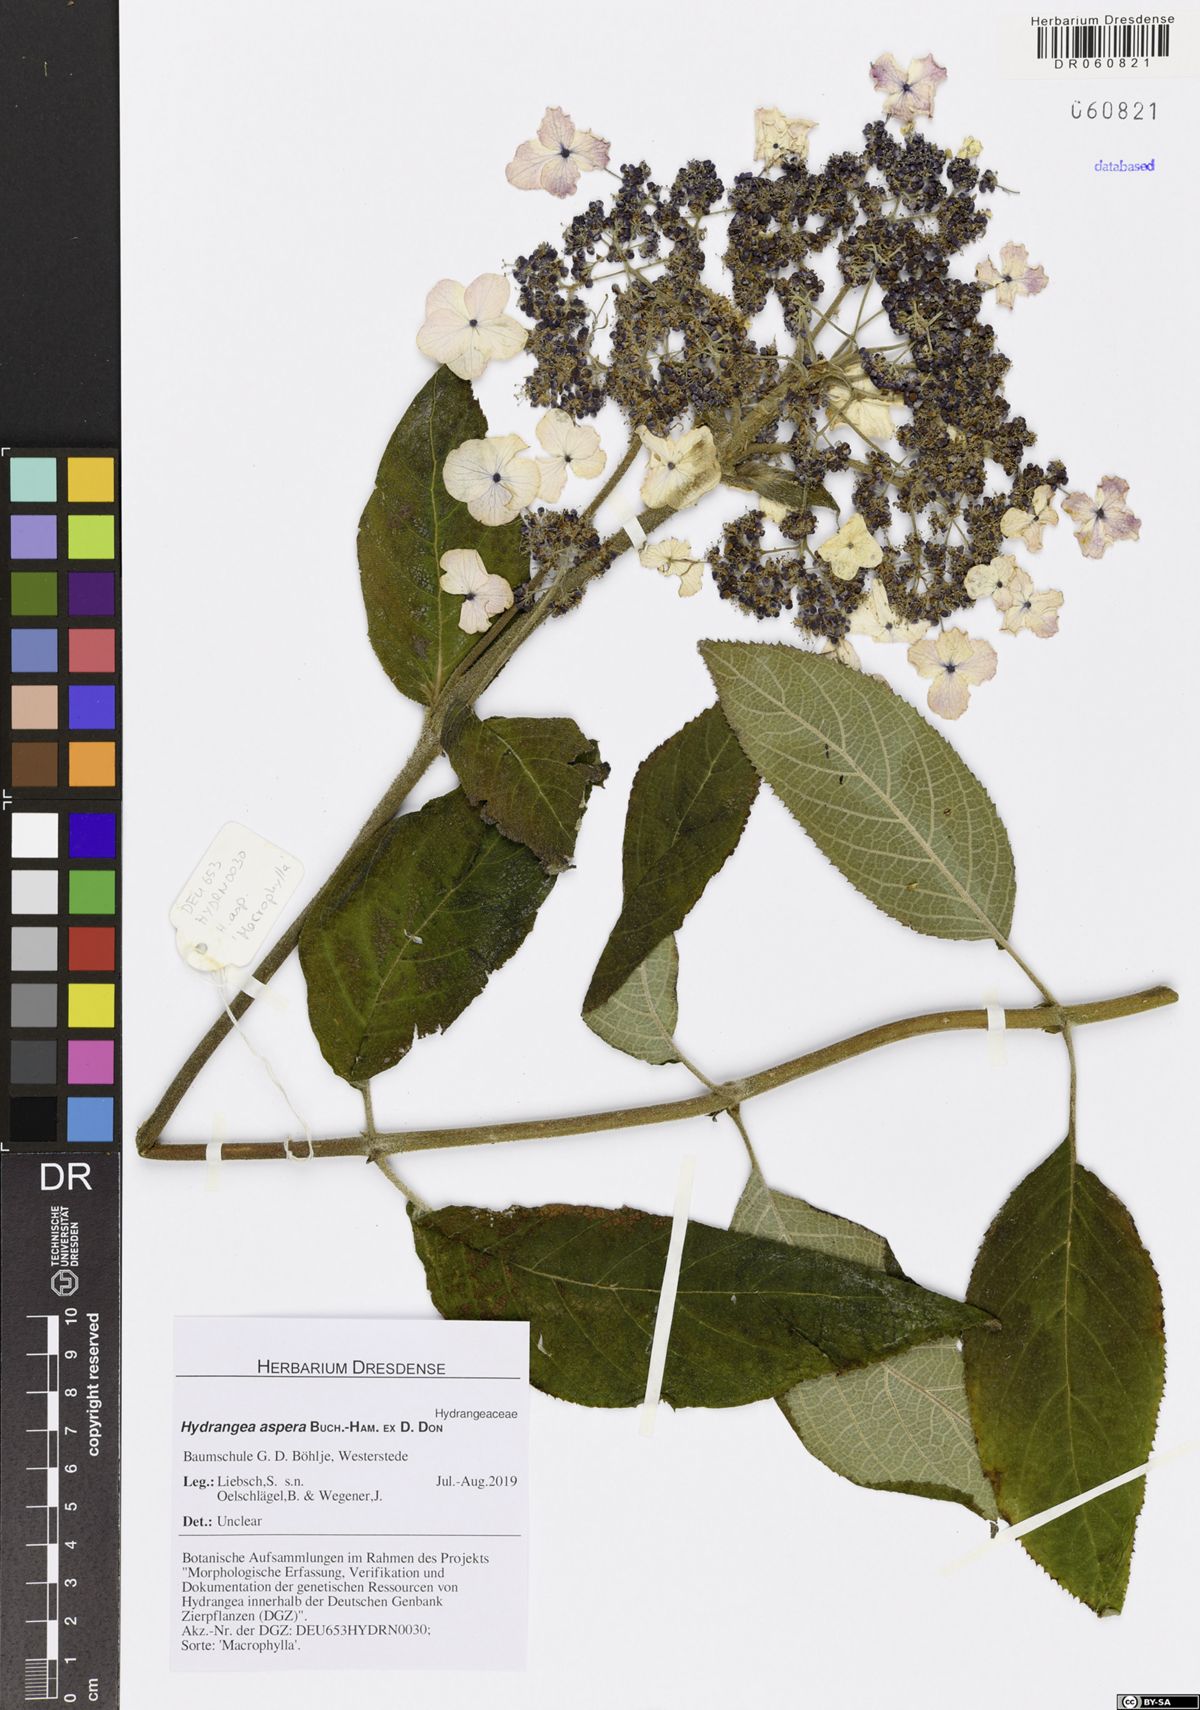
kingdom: Plantae
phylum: Tracheophyta
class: Magnoliopsida
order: Cornales
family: Hydrangeaceae
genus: Hydrangea
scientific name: Hydrangea aspera
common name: Rough-leaf hydrangea
